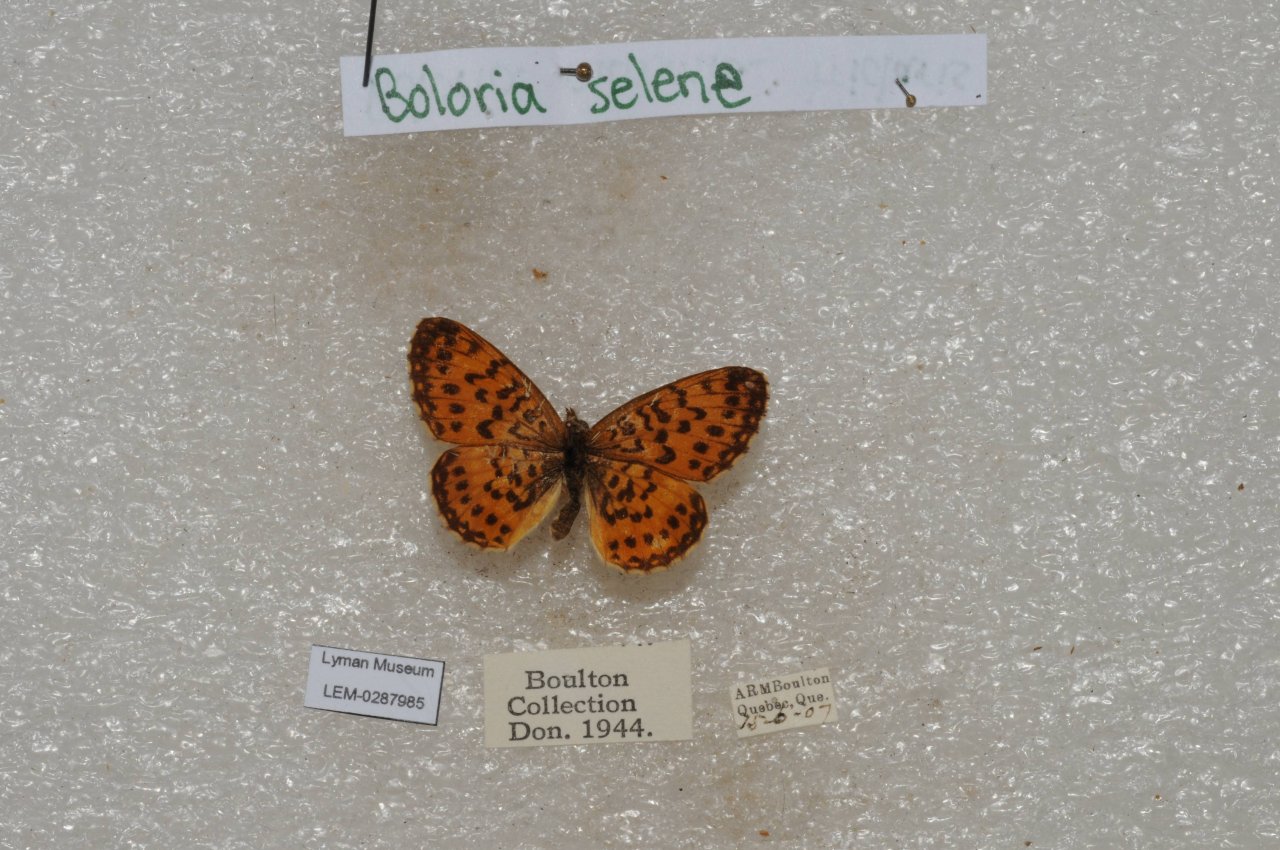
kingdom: Animalia
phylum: Arthropoda
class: Insecta
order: Lepidoptera
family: Nymphalidae
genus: Boloria
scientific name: Boloria selene
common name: Silver-bordered Fritillary
